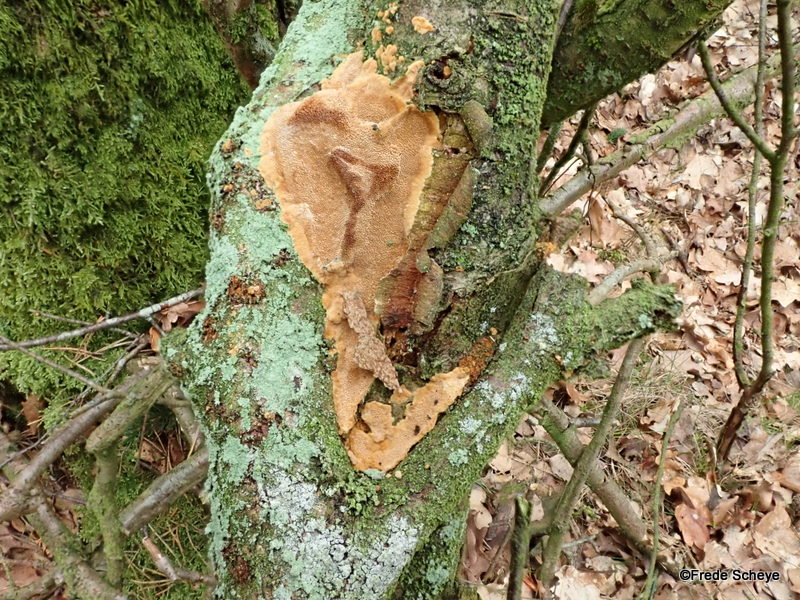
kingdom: Fungi
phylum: Basidiomycota
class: Agaricomycetes
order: Hymenochaetales
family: Hymenochaetaceae
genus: Phellinus
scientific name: Phellinus pomaceus
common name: blomme-ildporesvamp
